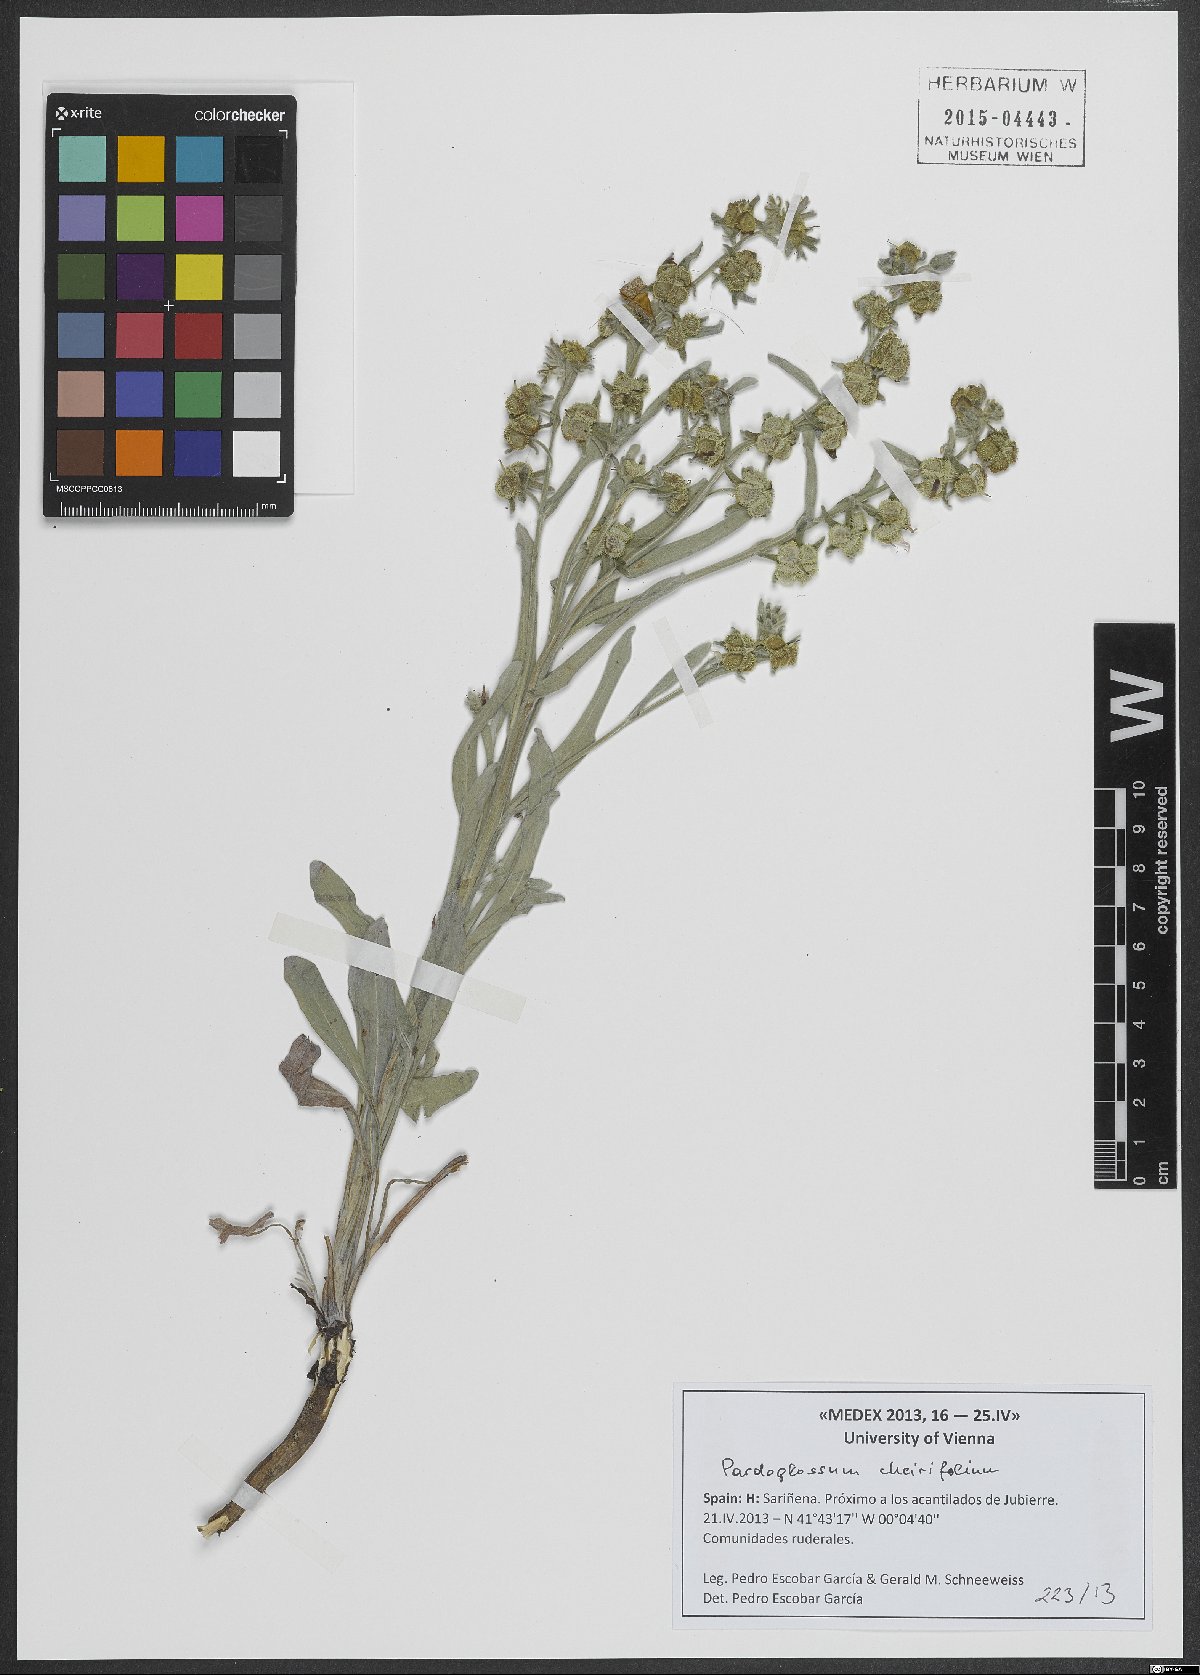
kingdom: Plantae
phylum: Tracheophyta
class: Magnoliopsida
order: Boraginales
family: Boraginaceae
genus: Pardoglossum
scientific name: Pardoglossum cheirifolium
